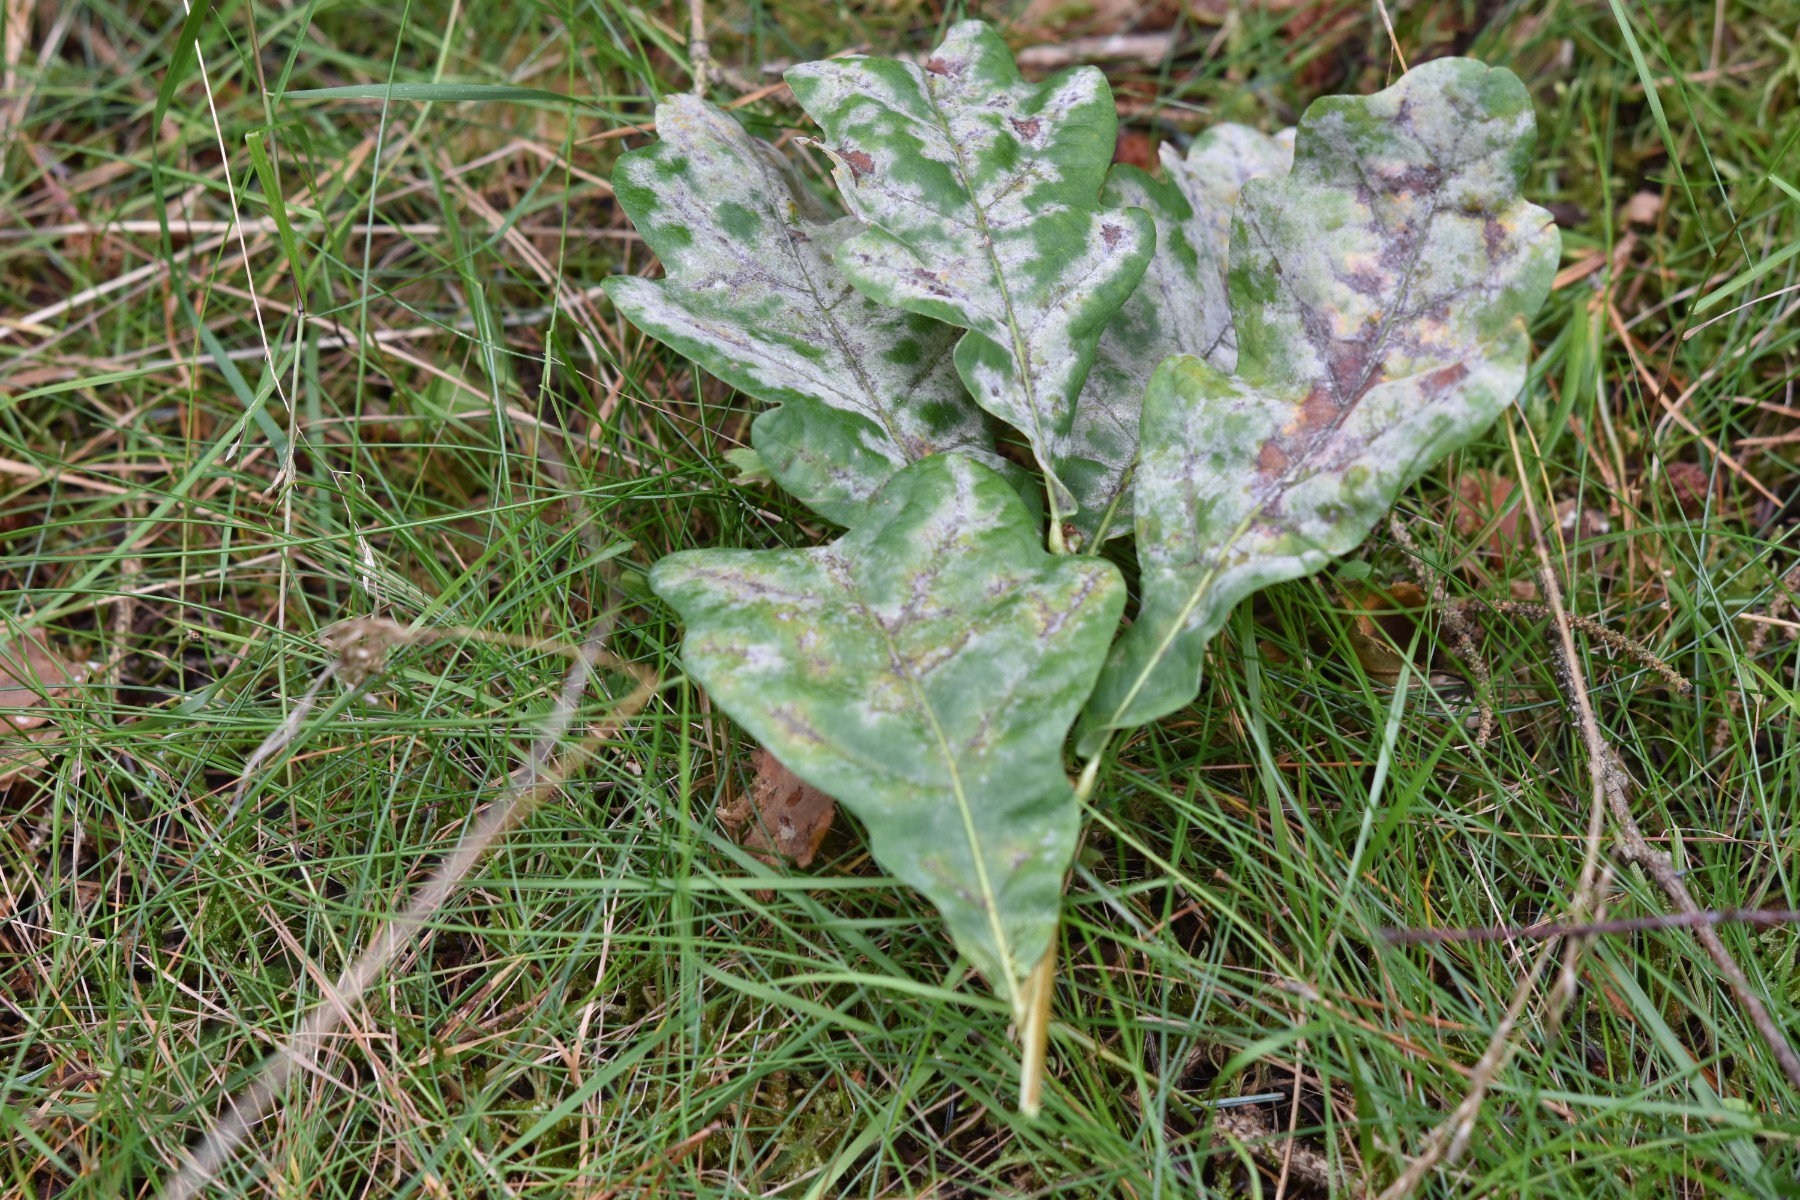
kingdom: Fungi
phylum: Ascomycota
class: Leotiomycetes
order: Helotiales
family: Erysiphaceae
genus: Erysiphe
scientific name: Erysiphe alphitoides
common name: ege-meldug
